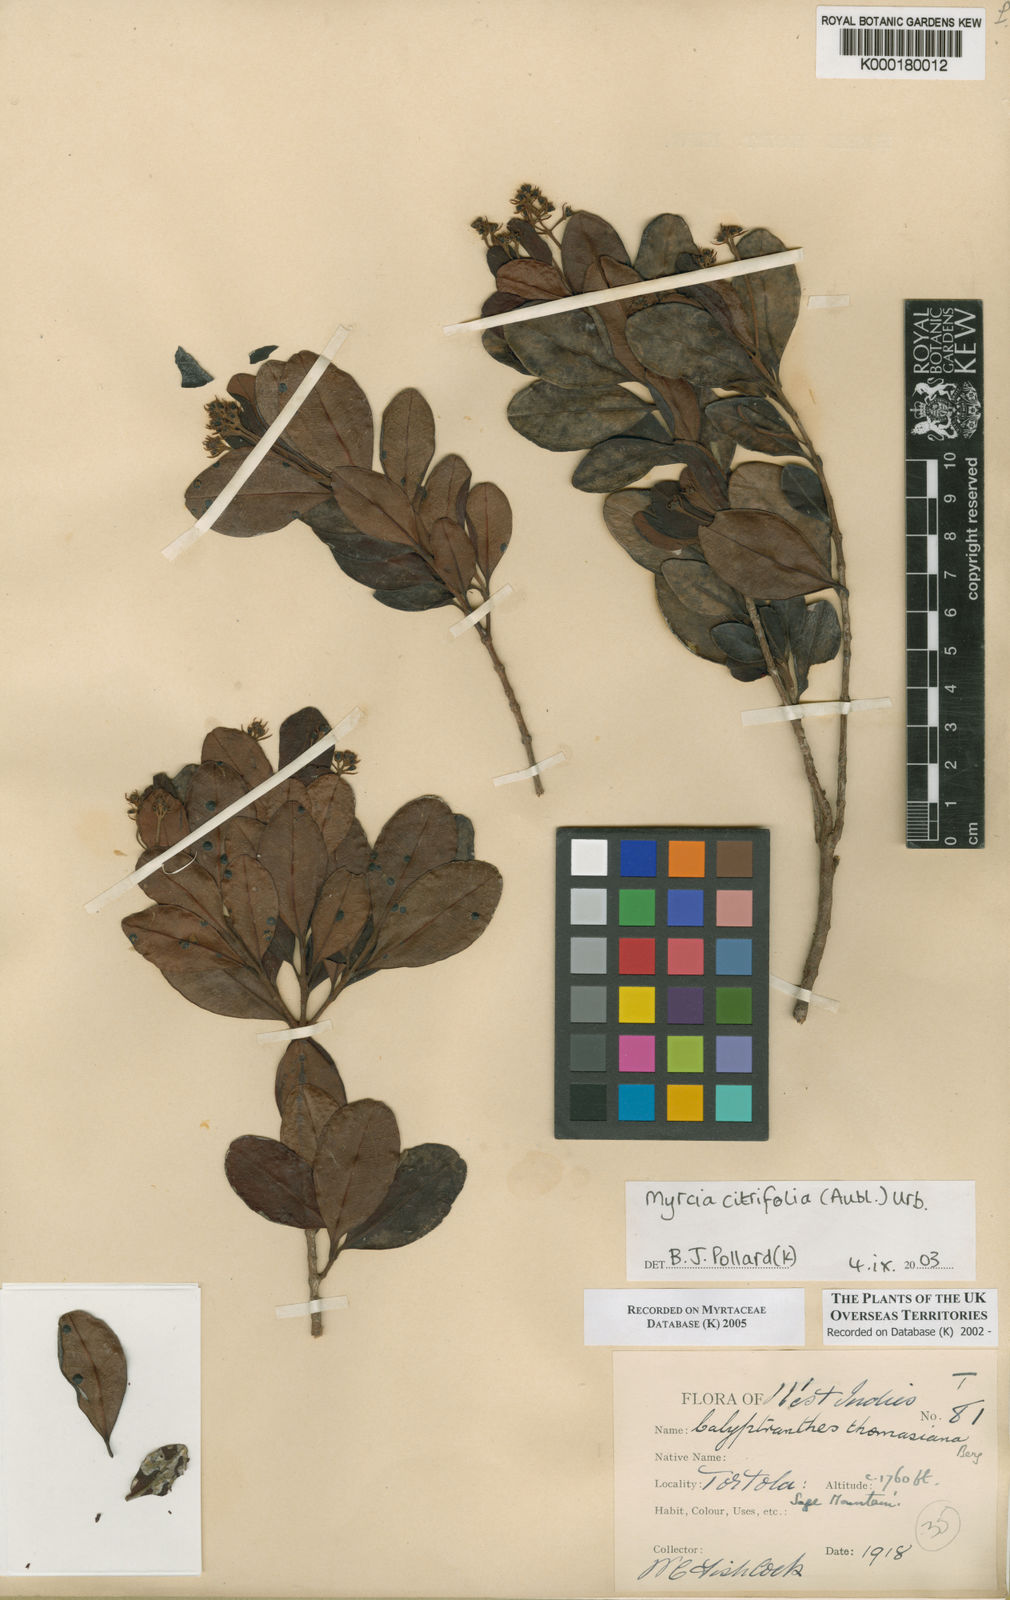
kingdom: Plantae
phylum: Tracheophyta
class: Magnoliopsida
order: Myrtales
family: Myrtaceae
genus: Myrcia
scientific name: Myrcia guianensis
